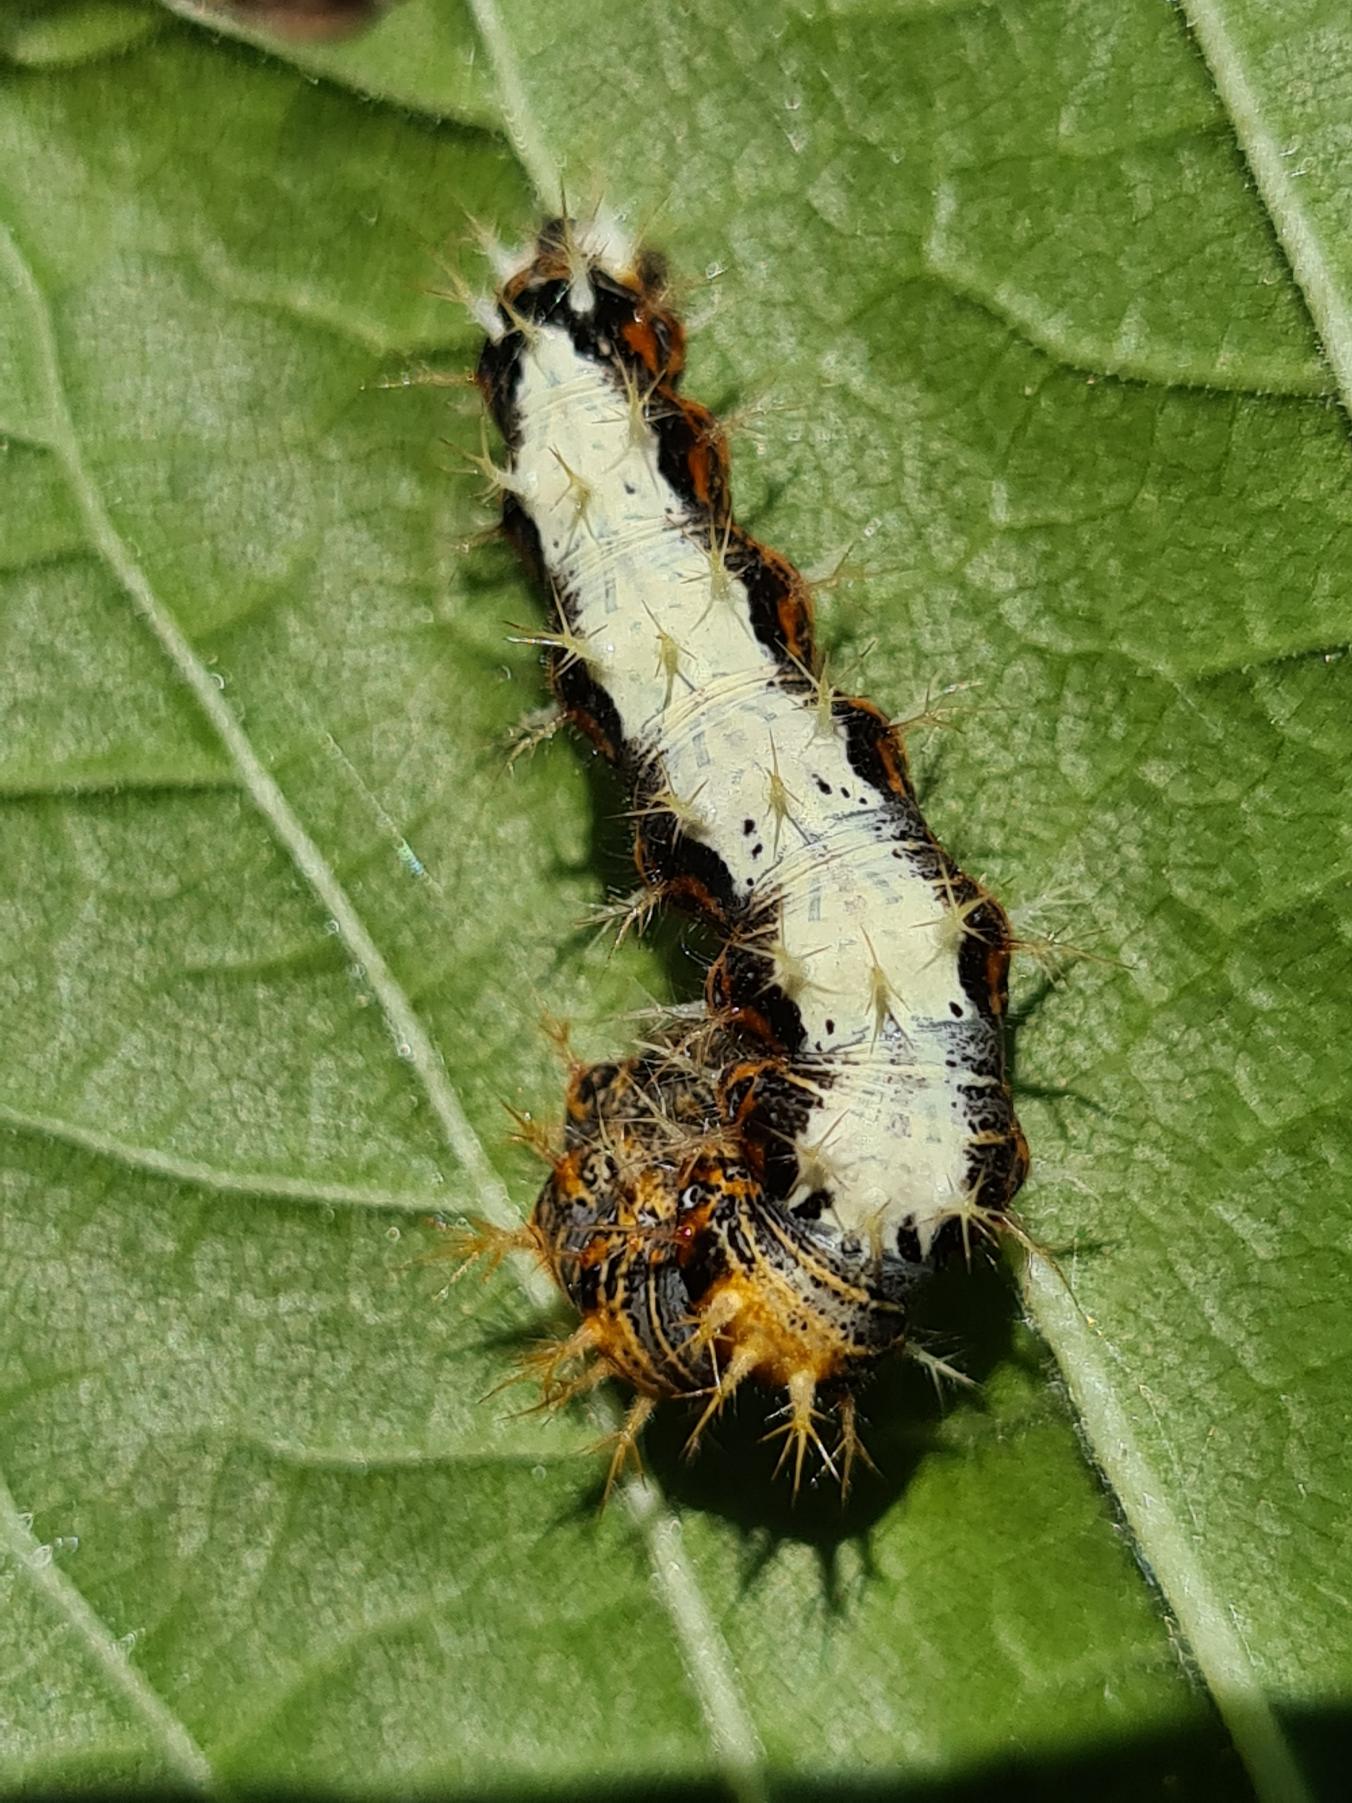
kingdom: Animalia
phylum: Arthropoda
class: Insecta
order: Lepidoptera
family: Nymphalidae
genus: Polygonia
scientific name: Polygonia c-album
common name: Det hvide C
